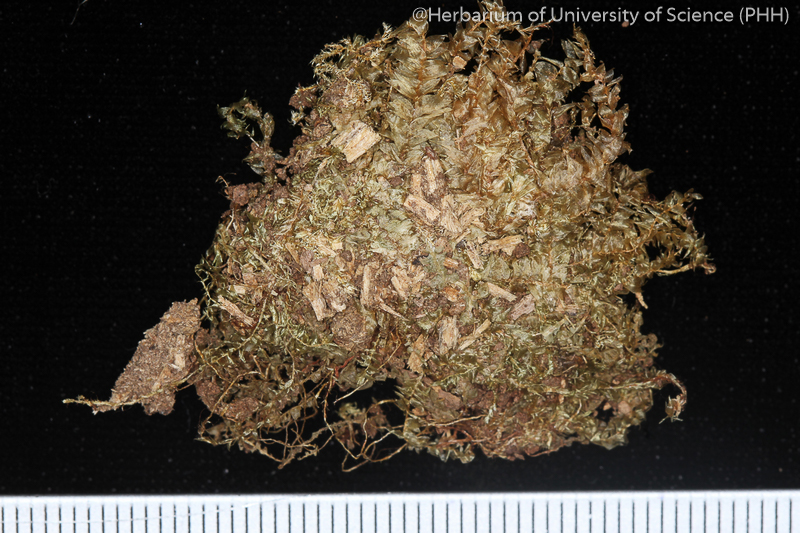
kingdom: Plantae
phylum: Bryophyta
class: Bryopsida
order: Hypnales
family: Plagiotheciaceae
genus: Plagiothecium
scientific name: Plagiothecium euryphyllum
